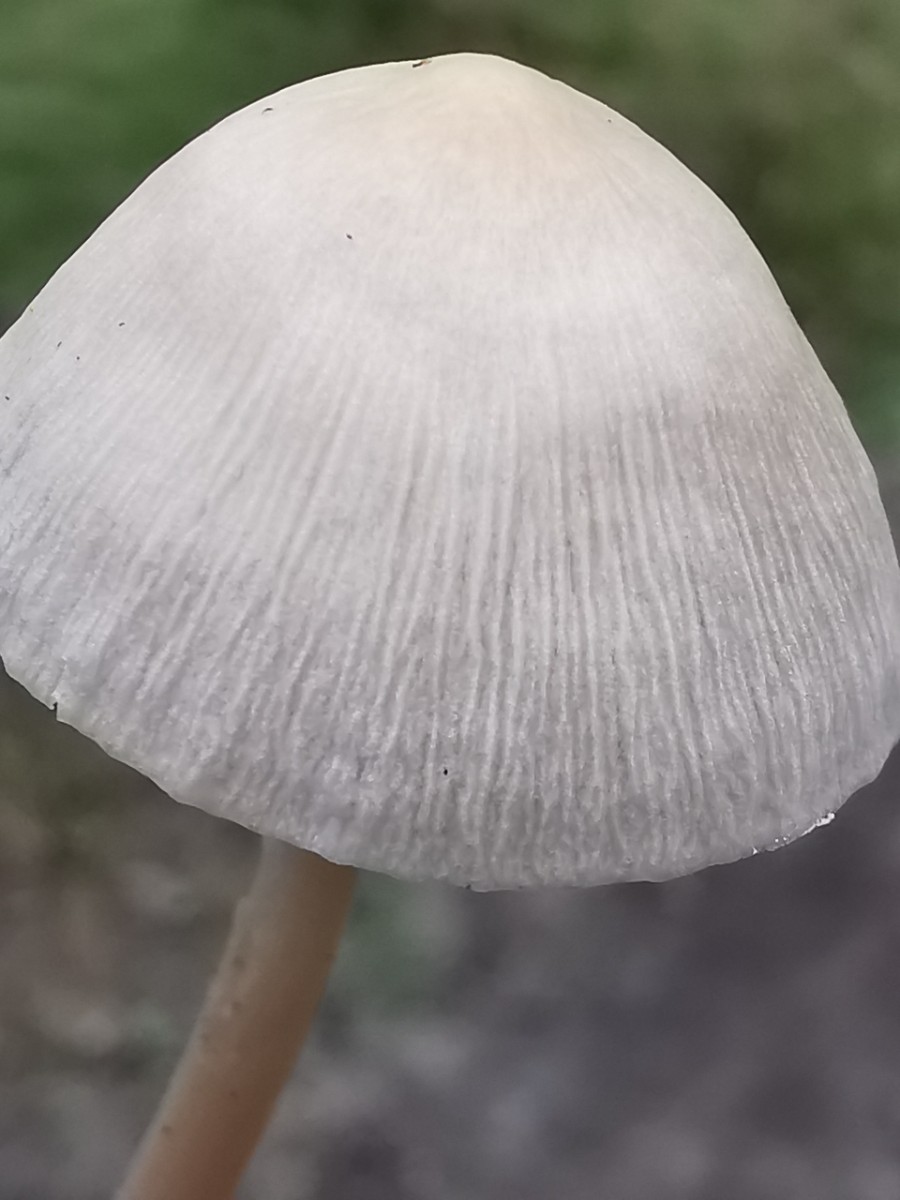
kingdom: Fungi
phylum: Basidiomycota
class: Agaricomycetes
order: Agaricales
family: Mycenaceae
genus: Mycena
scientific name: Mycena galericulata
